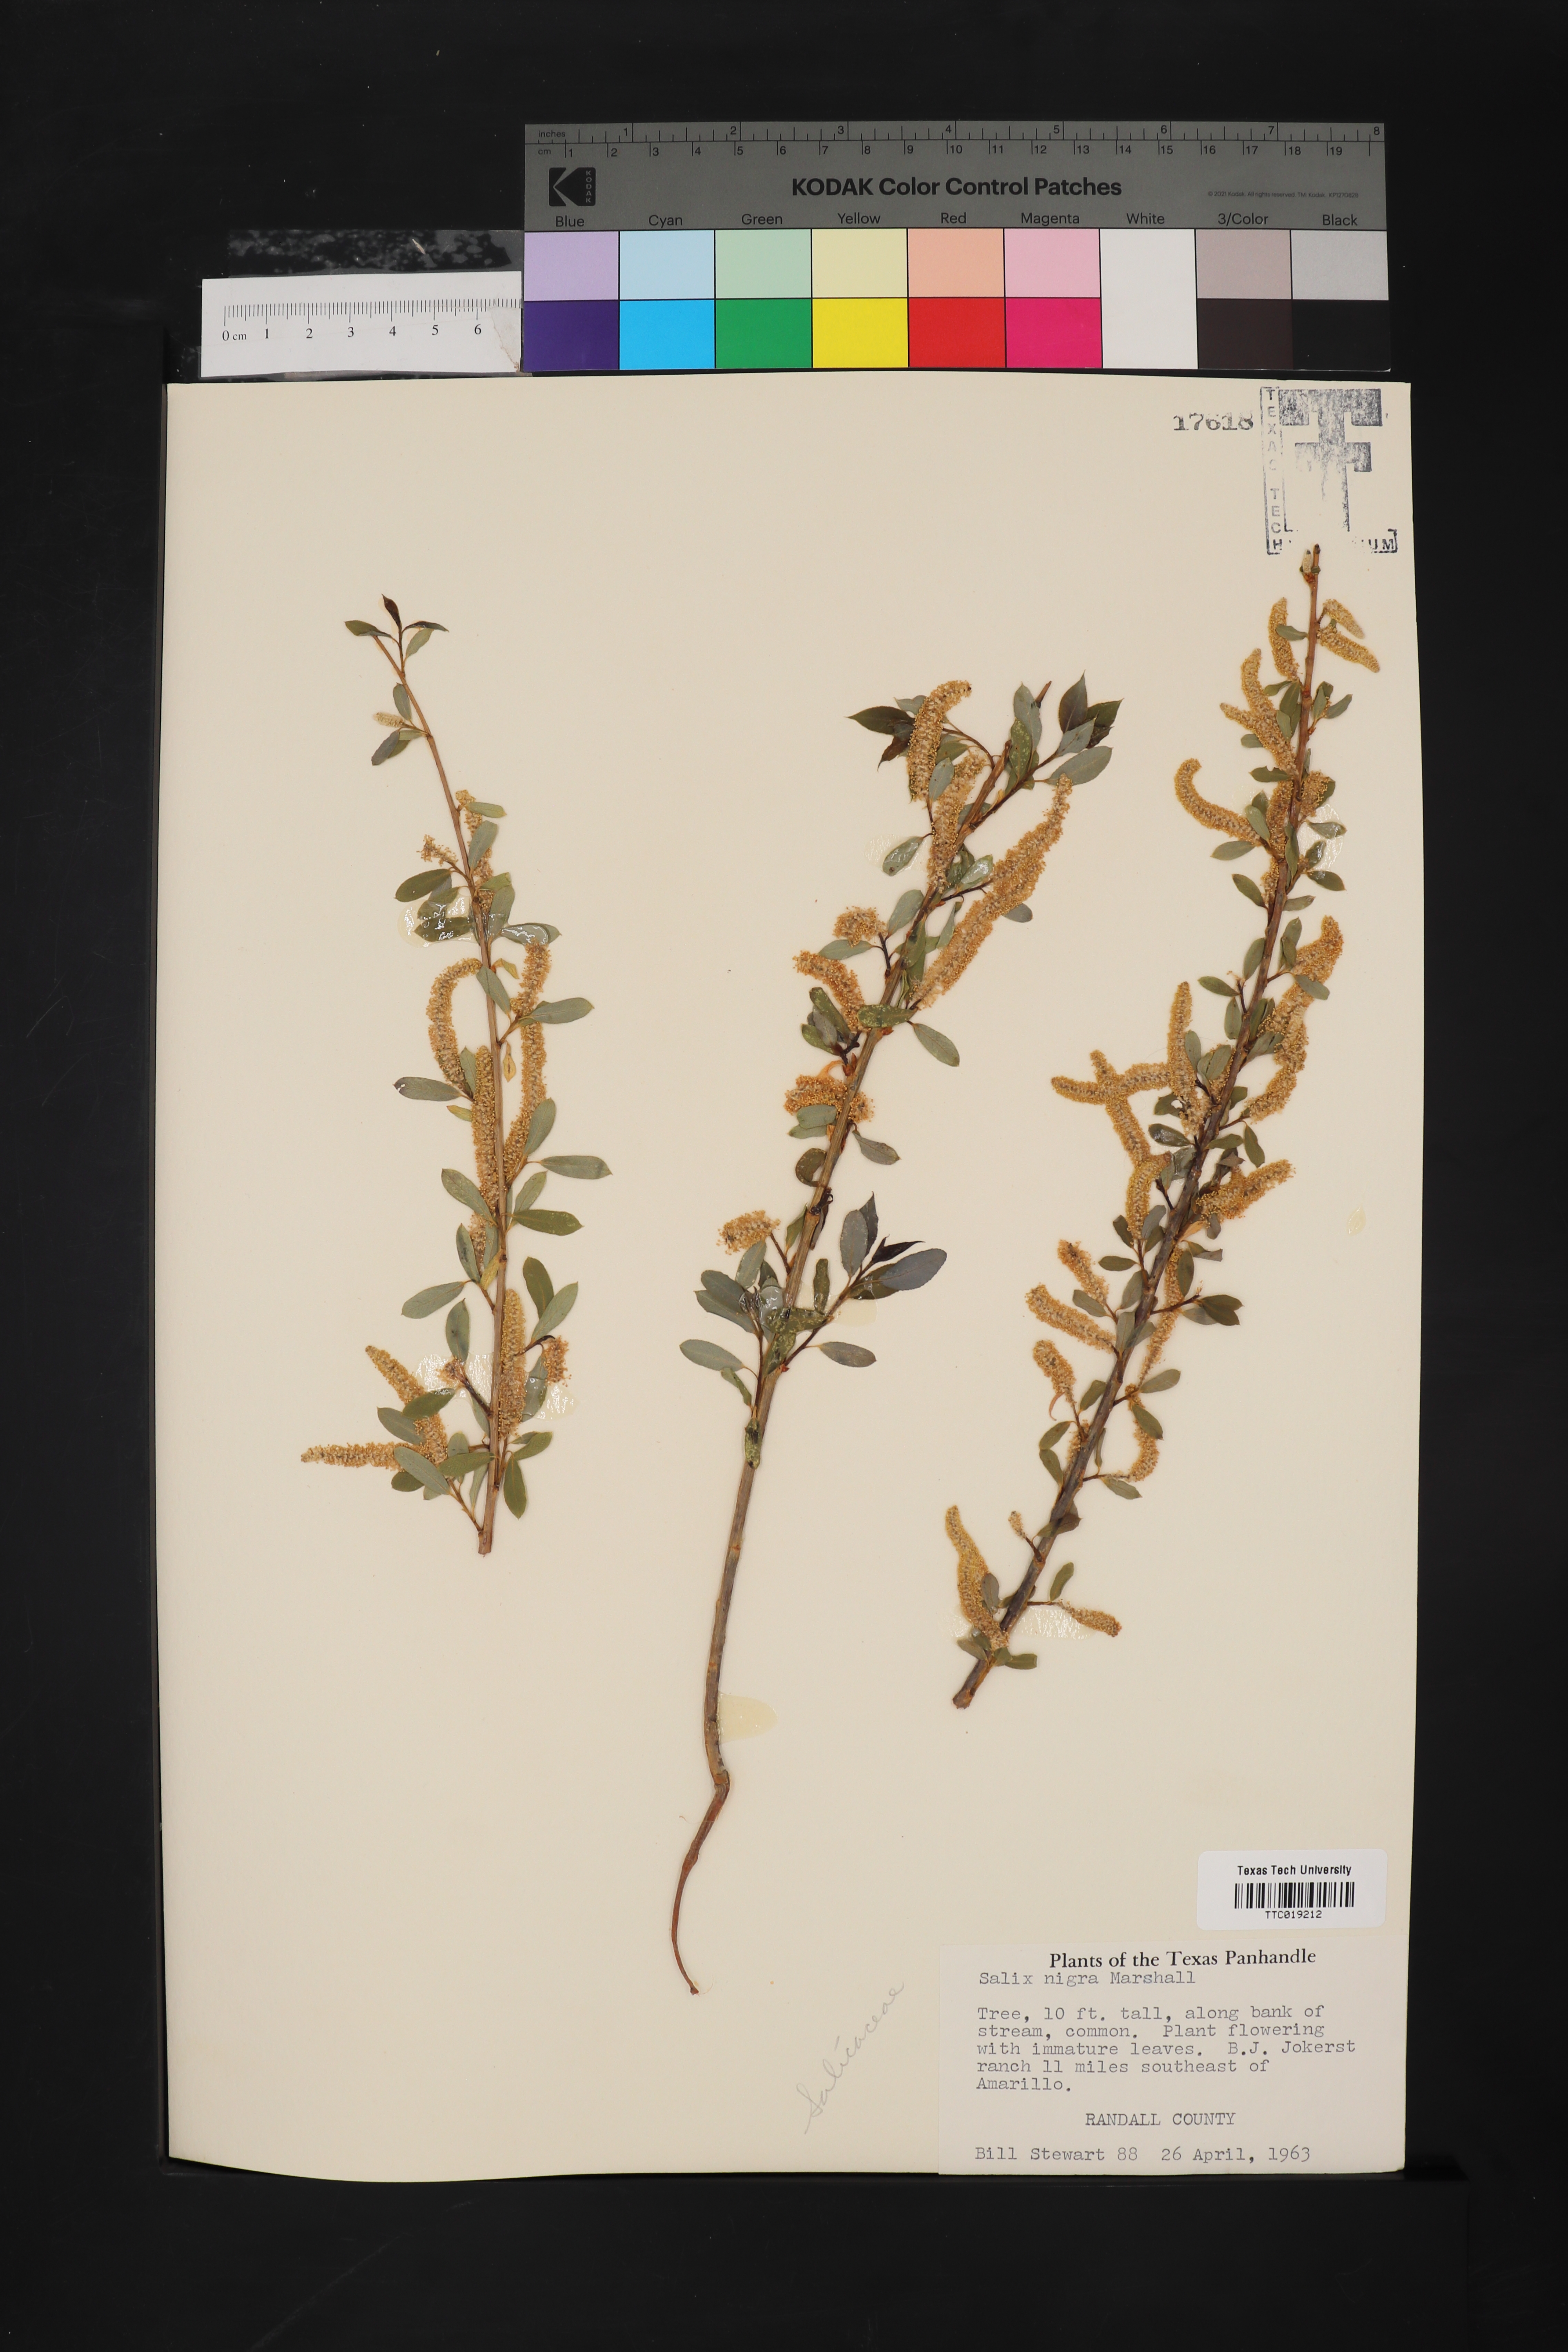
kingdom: Plantae
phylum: Tracheophyta
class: Magnoliopsida
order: Malpighiales
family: Salicaceae
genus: Salix
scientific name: Salix nigra
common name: Black willow
